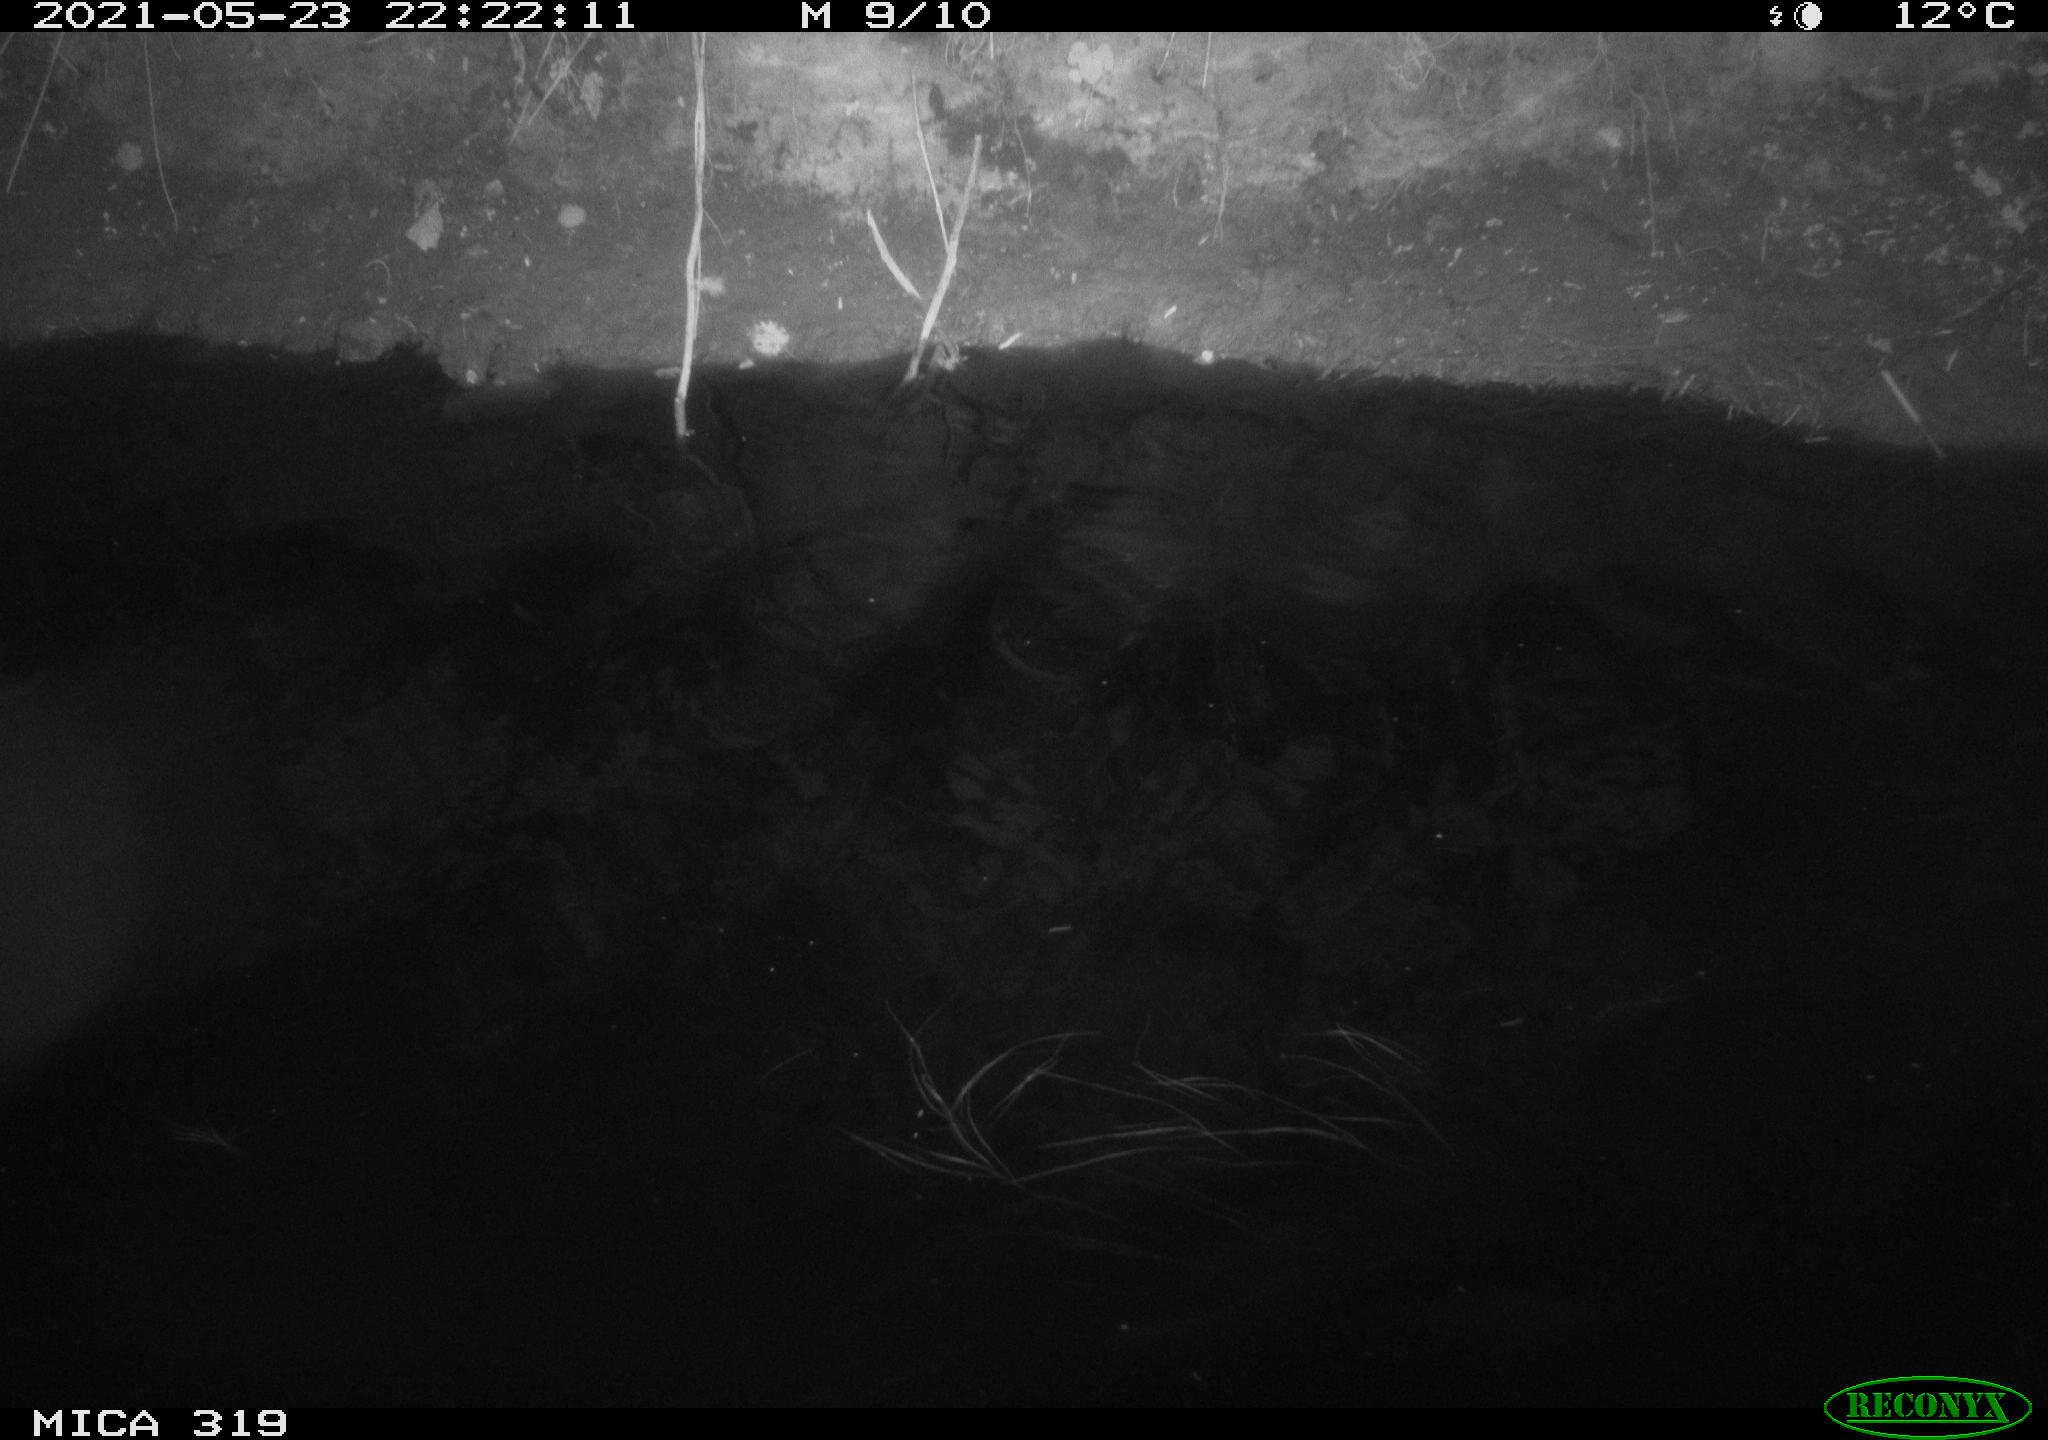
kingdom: Animalia
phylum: Chordata
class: Aves
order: Anseriformes
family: Anatidae
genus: Anas
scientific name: Anas platyrhynchos
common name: Mallard
